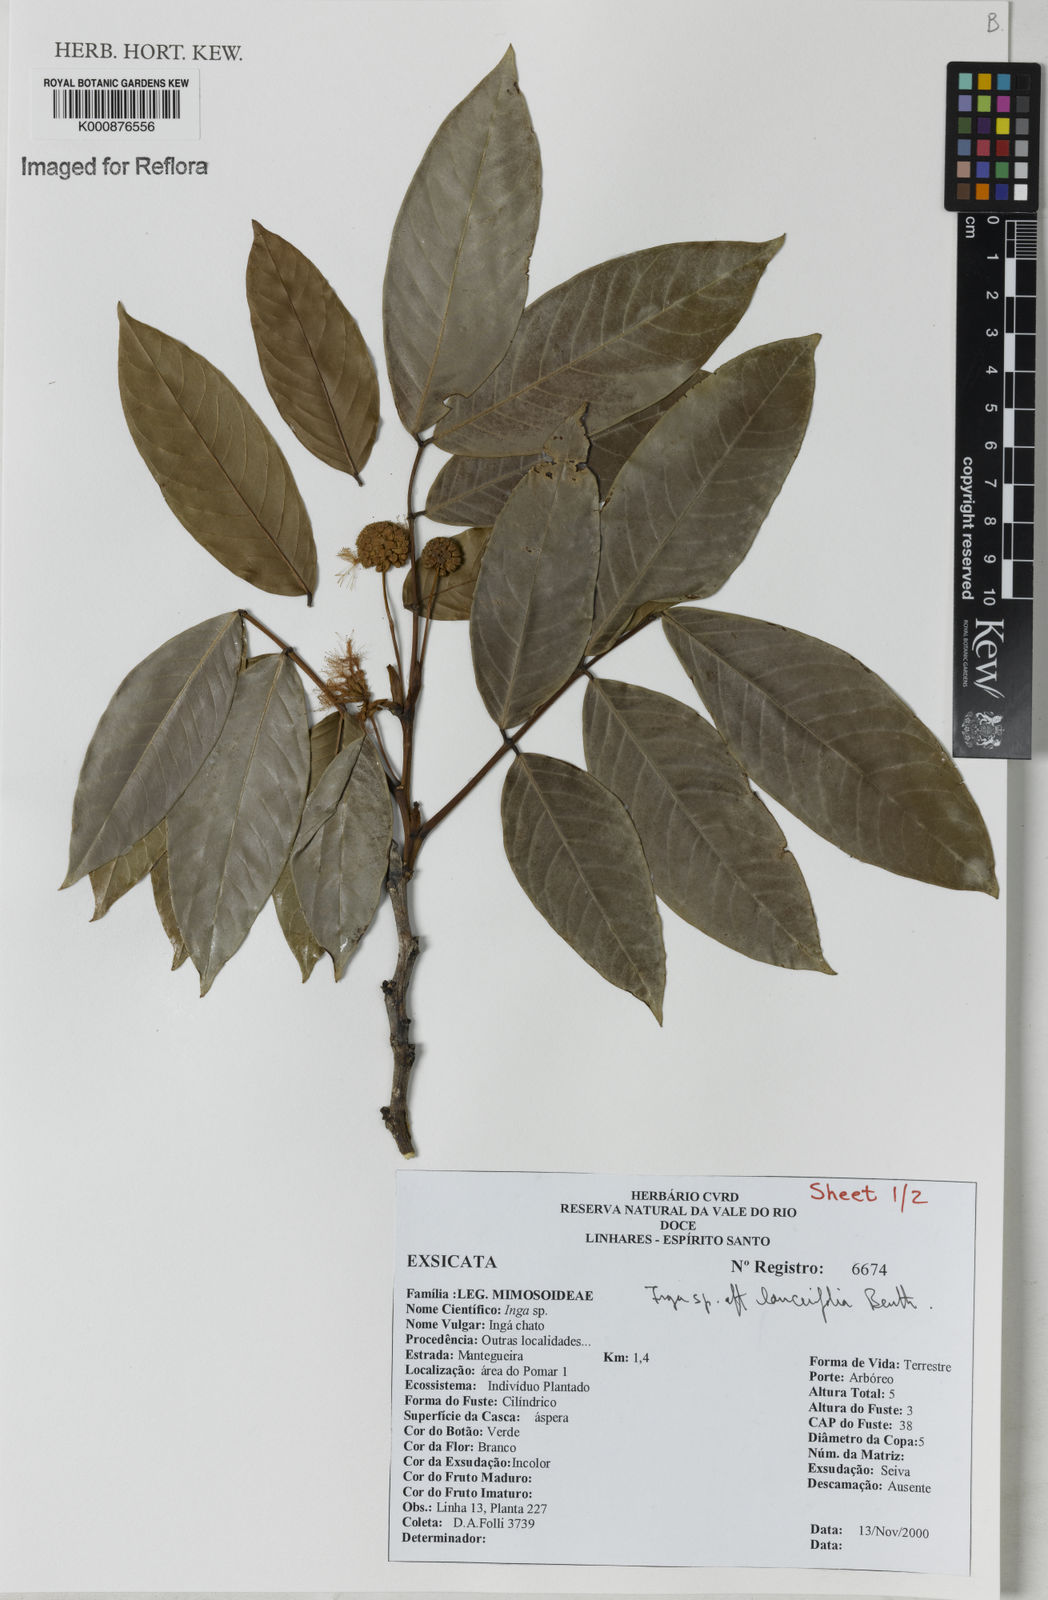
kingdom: Plantae
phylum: Tracheophyta
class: Magnoliopsida
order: Fabales
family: Fabaceae
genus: Inga
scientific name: Inga lanceifolia
